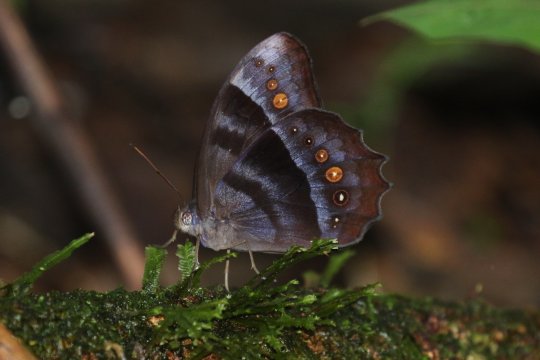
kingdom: Animalia
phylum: Arthropoda
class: Insecta
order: Lepidoptera
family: Nymphalidae
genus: Taygetis
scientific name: Taygetis thamyra
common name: Thamyra Satyr
